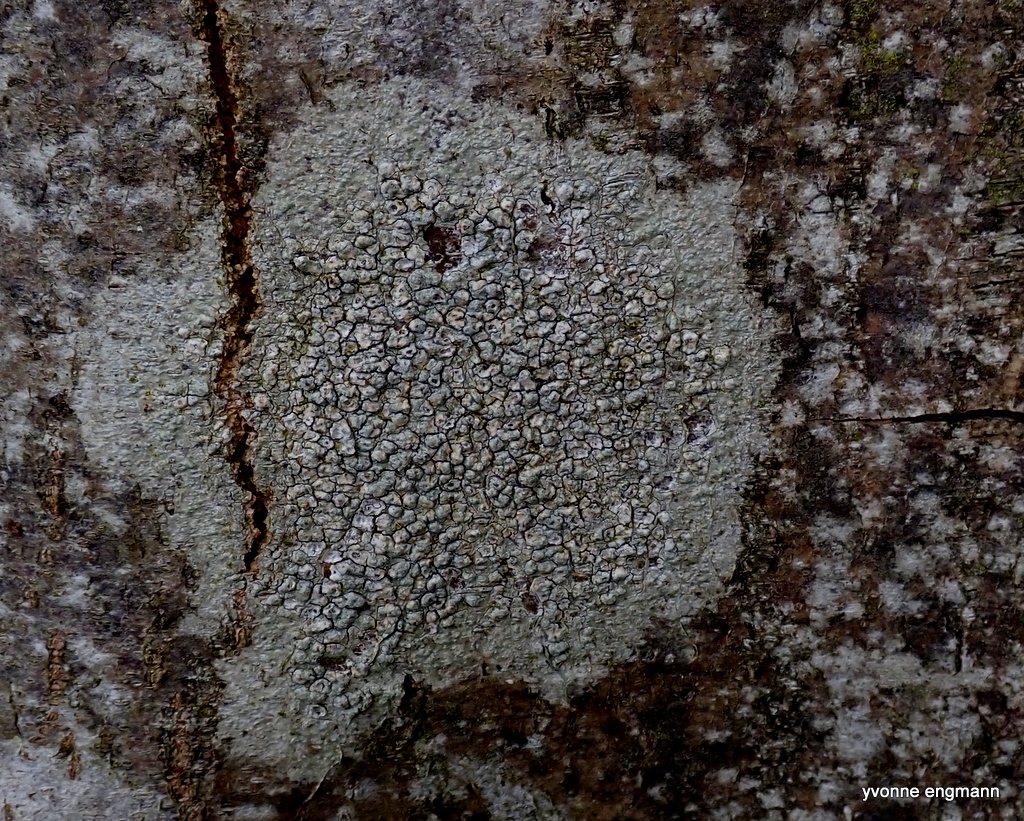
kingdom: Fungi
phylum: Ascomycota
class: Lecanoromycetes
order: Pertusariales
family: Pertusariaceae
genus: Pertusaria
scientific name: Pertusaria pertusa
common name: almindelig prikvortelav
